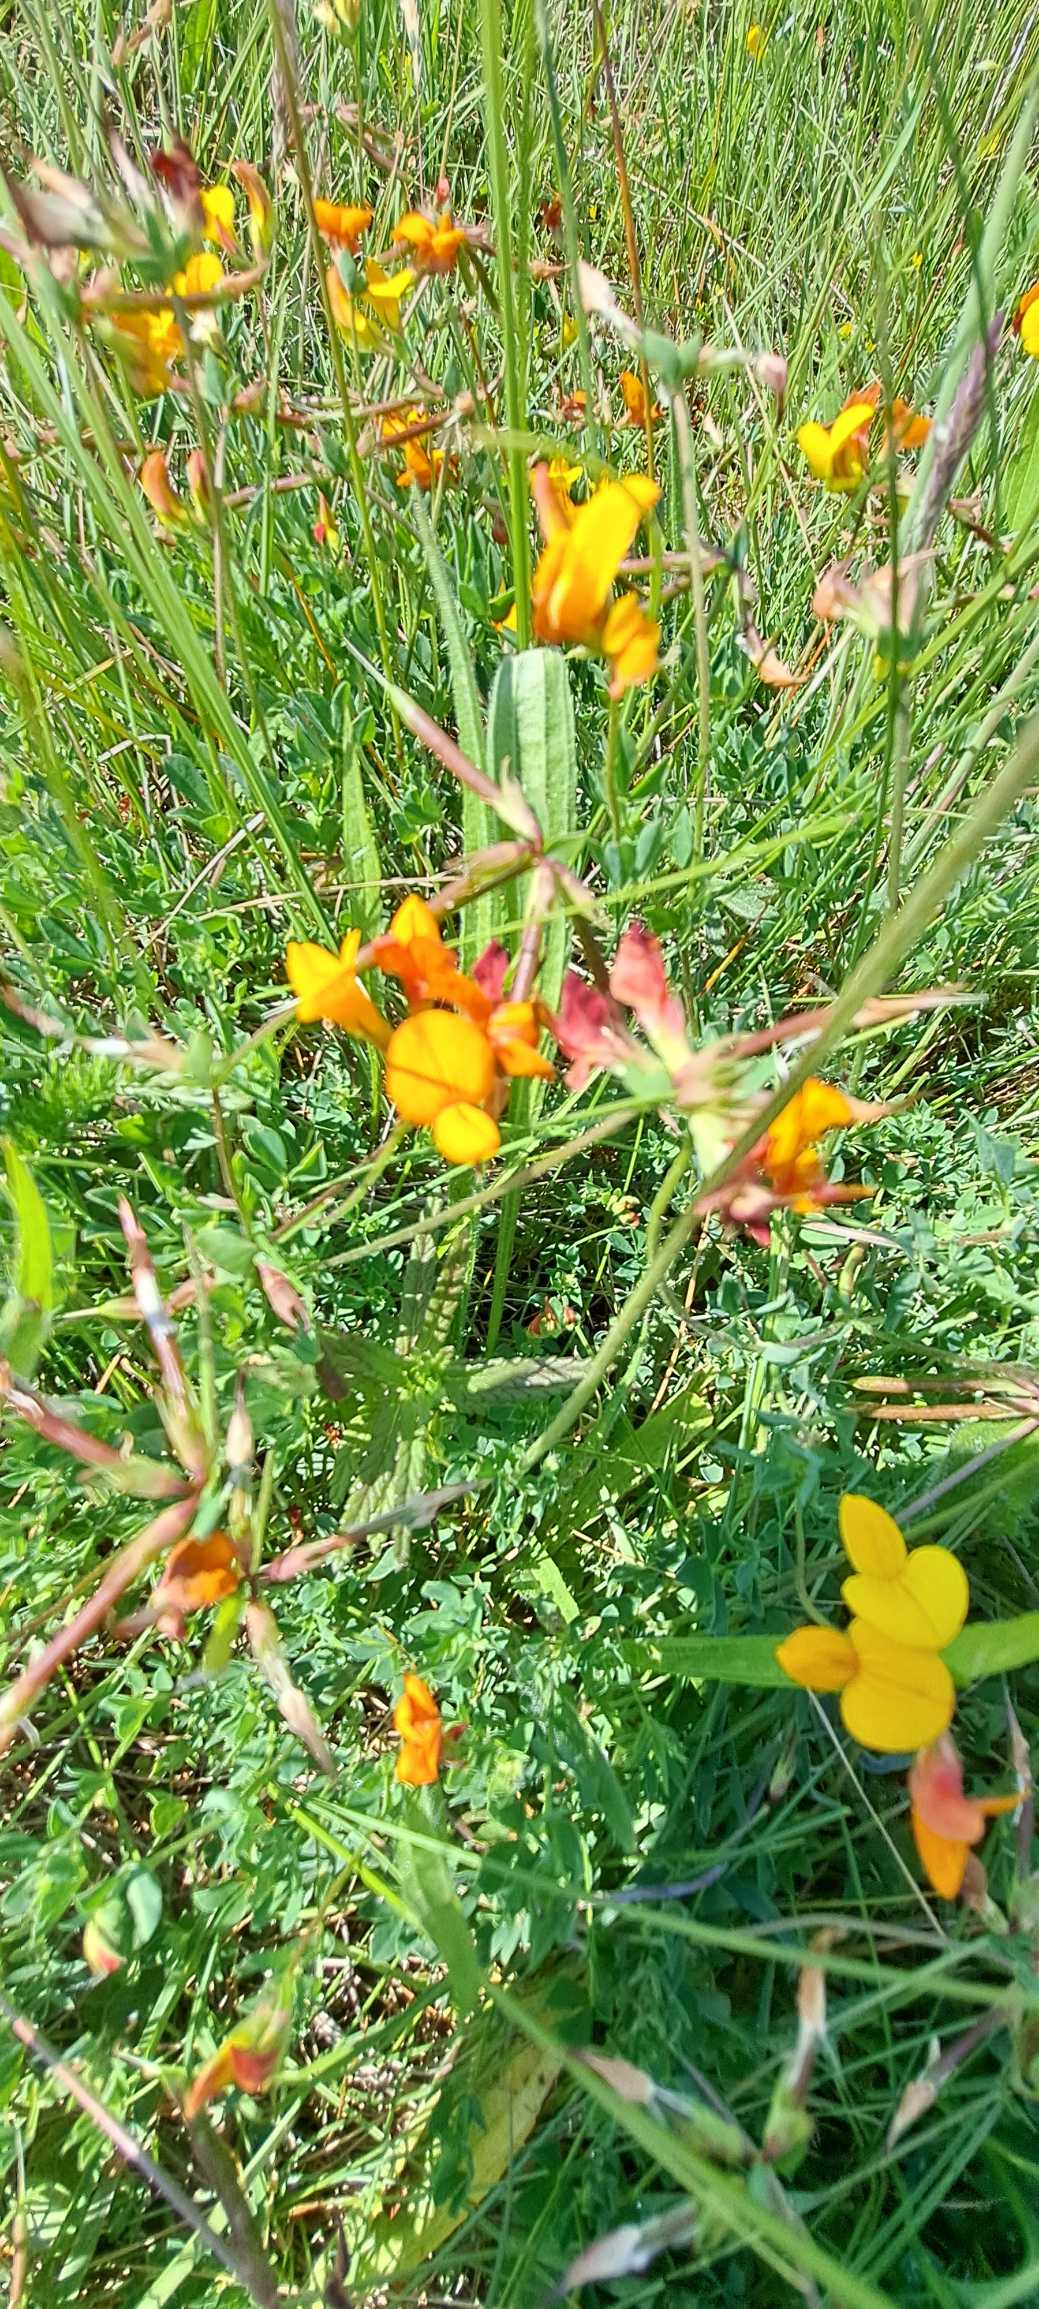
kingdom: Plantae
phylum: Tracheophyta
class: Magnoliopsida
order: Fabales
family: Fabaceae
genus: Lotus
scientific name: Lotus corniculatus
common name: Almindelig kællingetand
